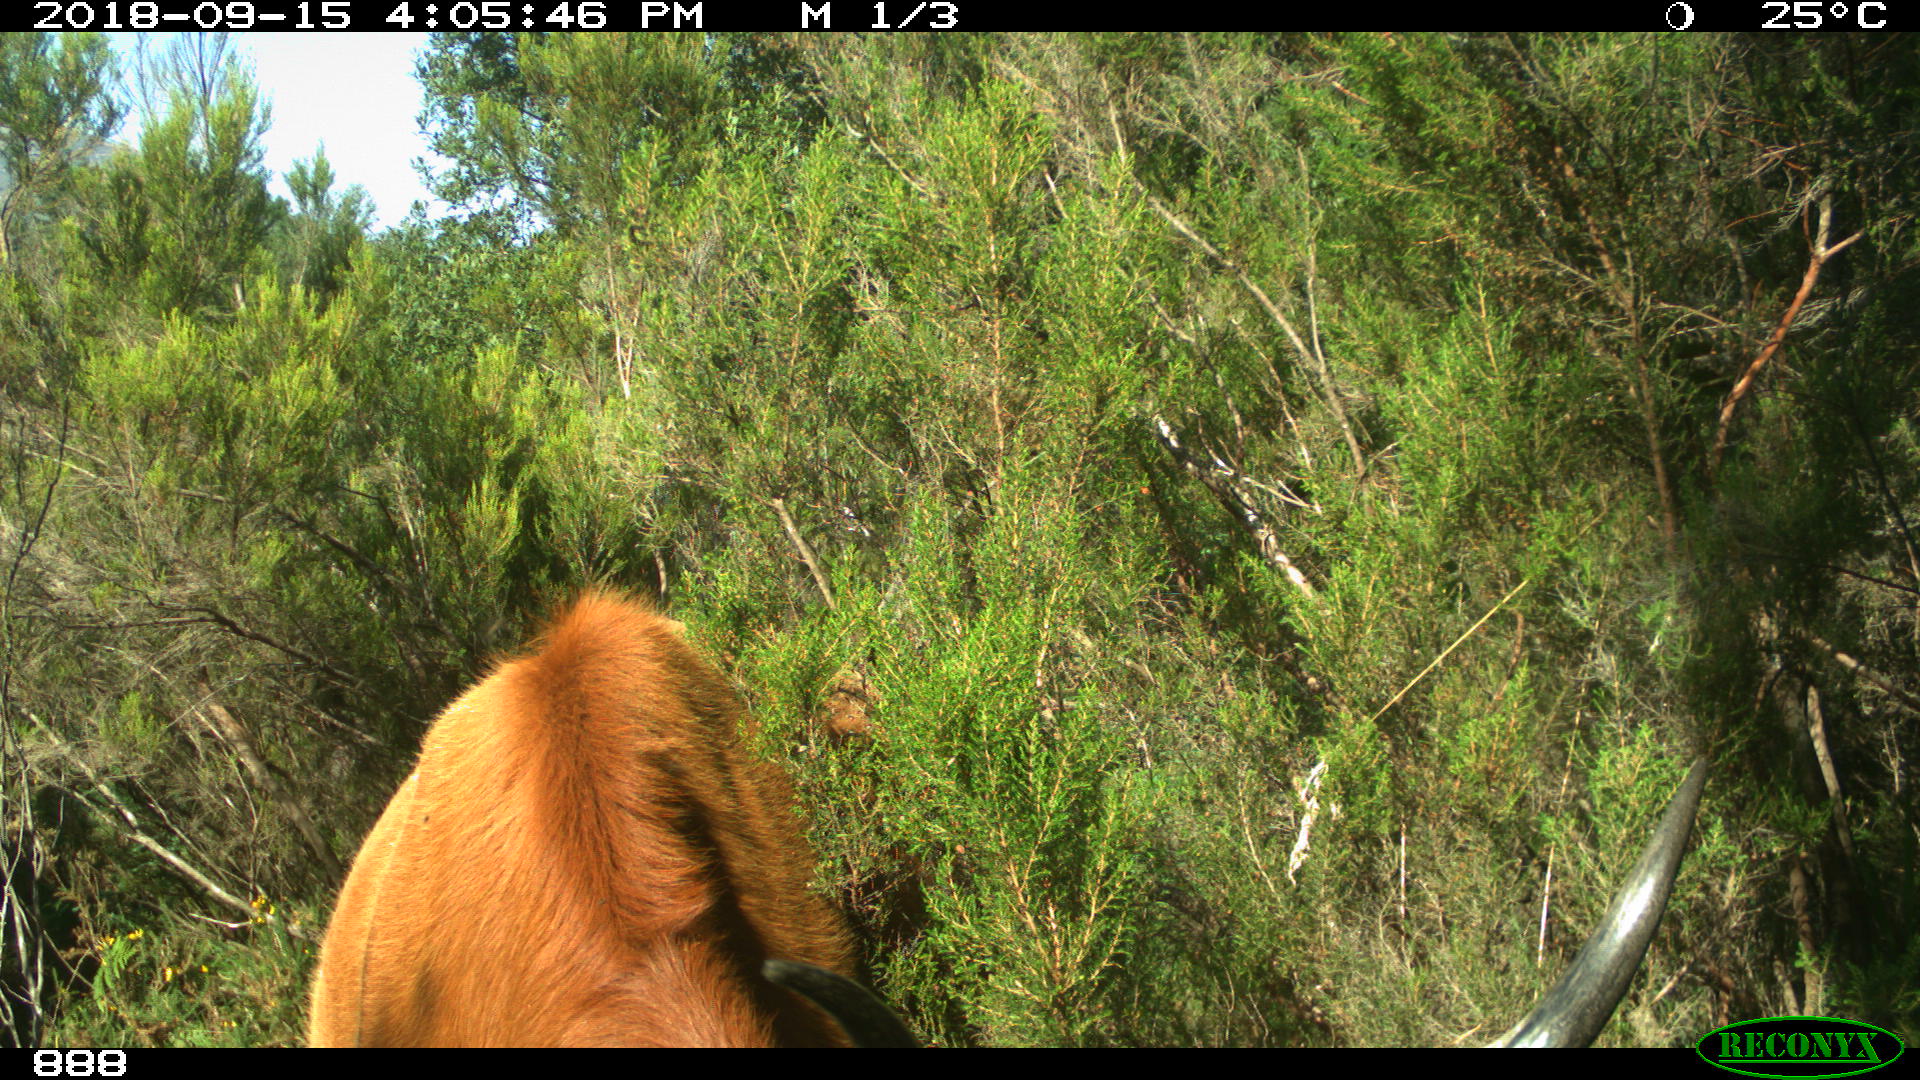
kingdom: Animalia
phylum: Chordata
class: Mammalia
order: Artiodactyla
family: Bovidae
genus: Bos
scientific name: Bos taurus
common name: Domesticated cattle
